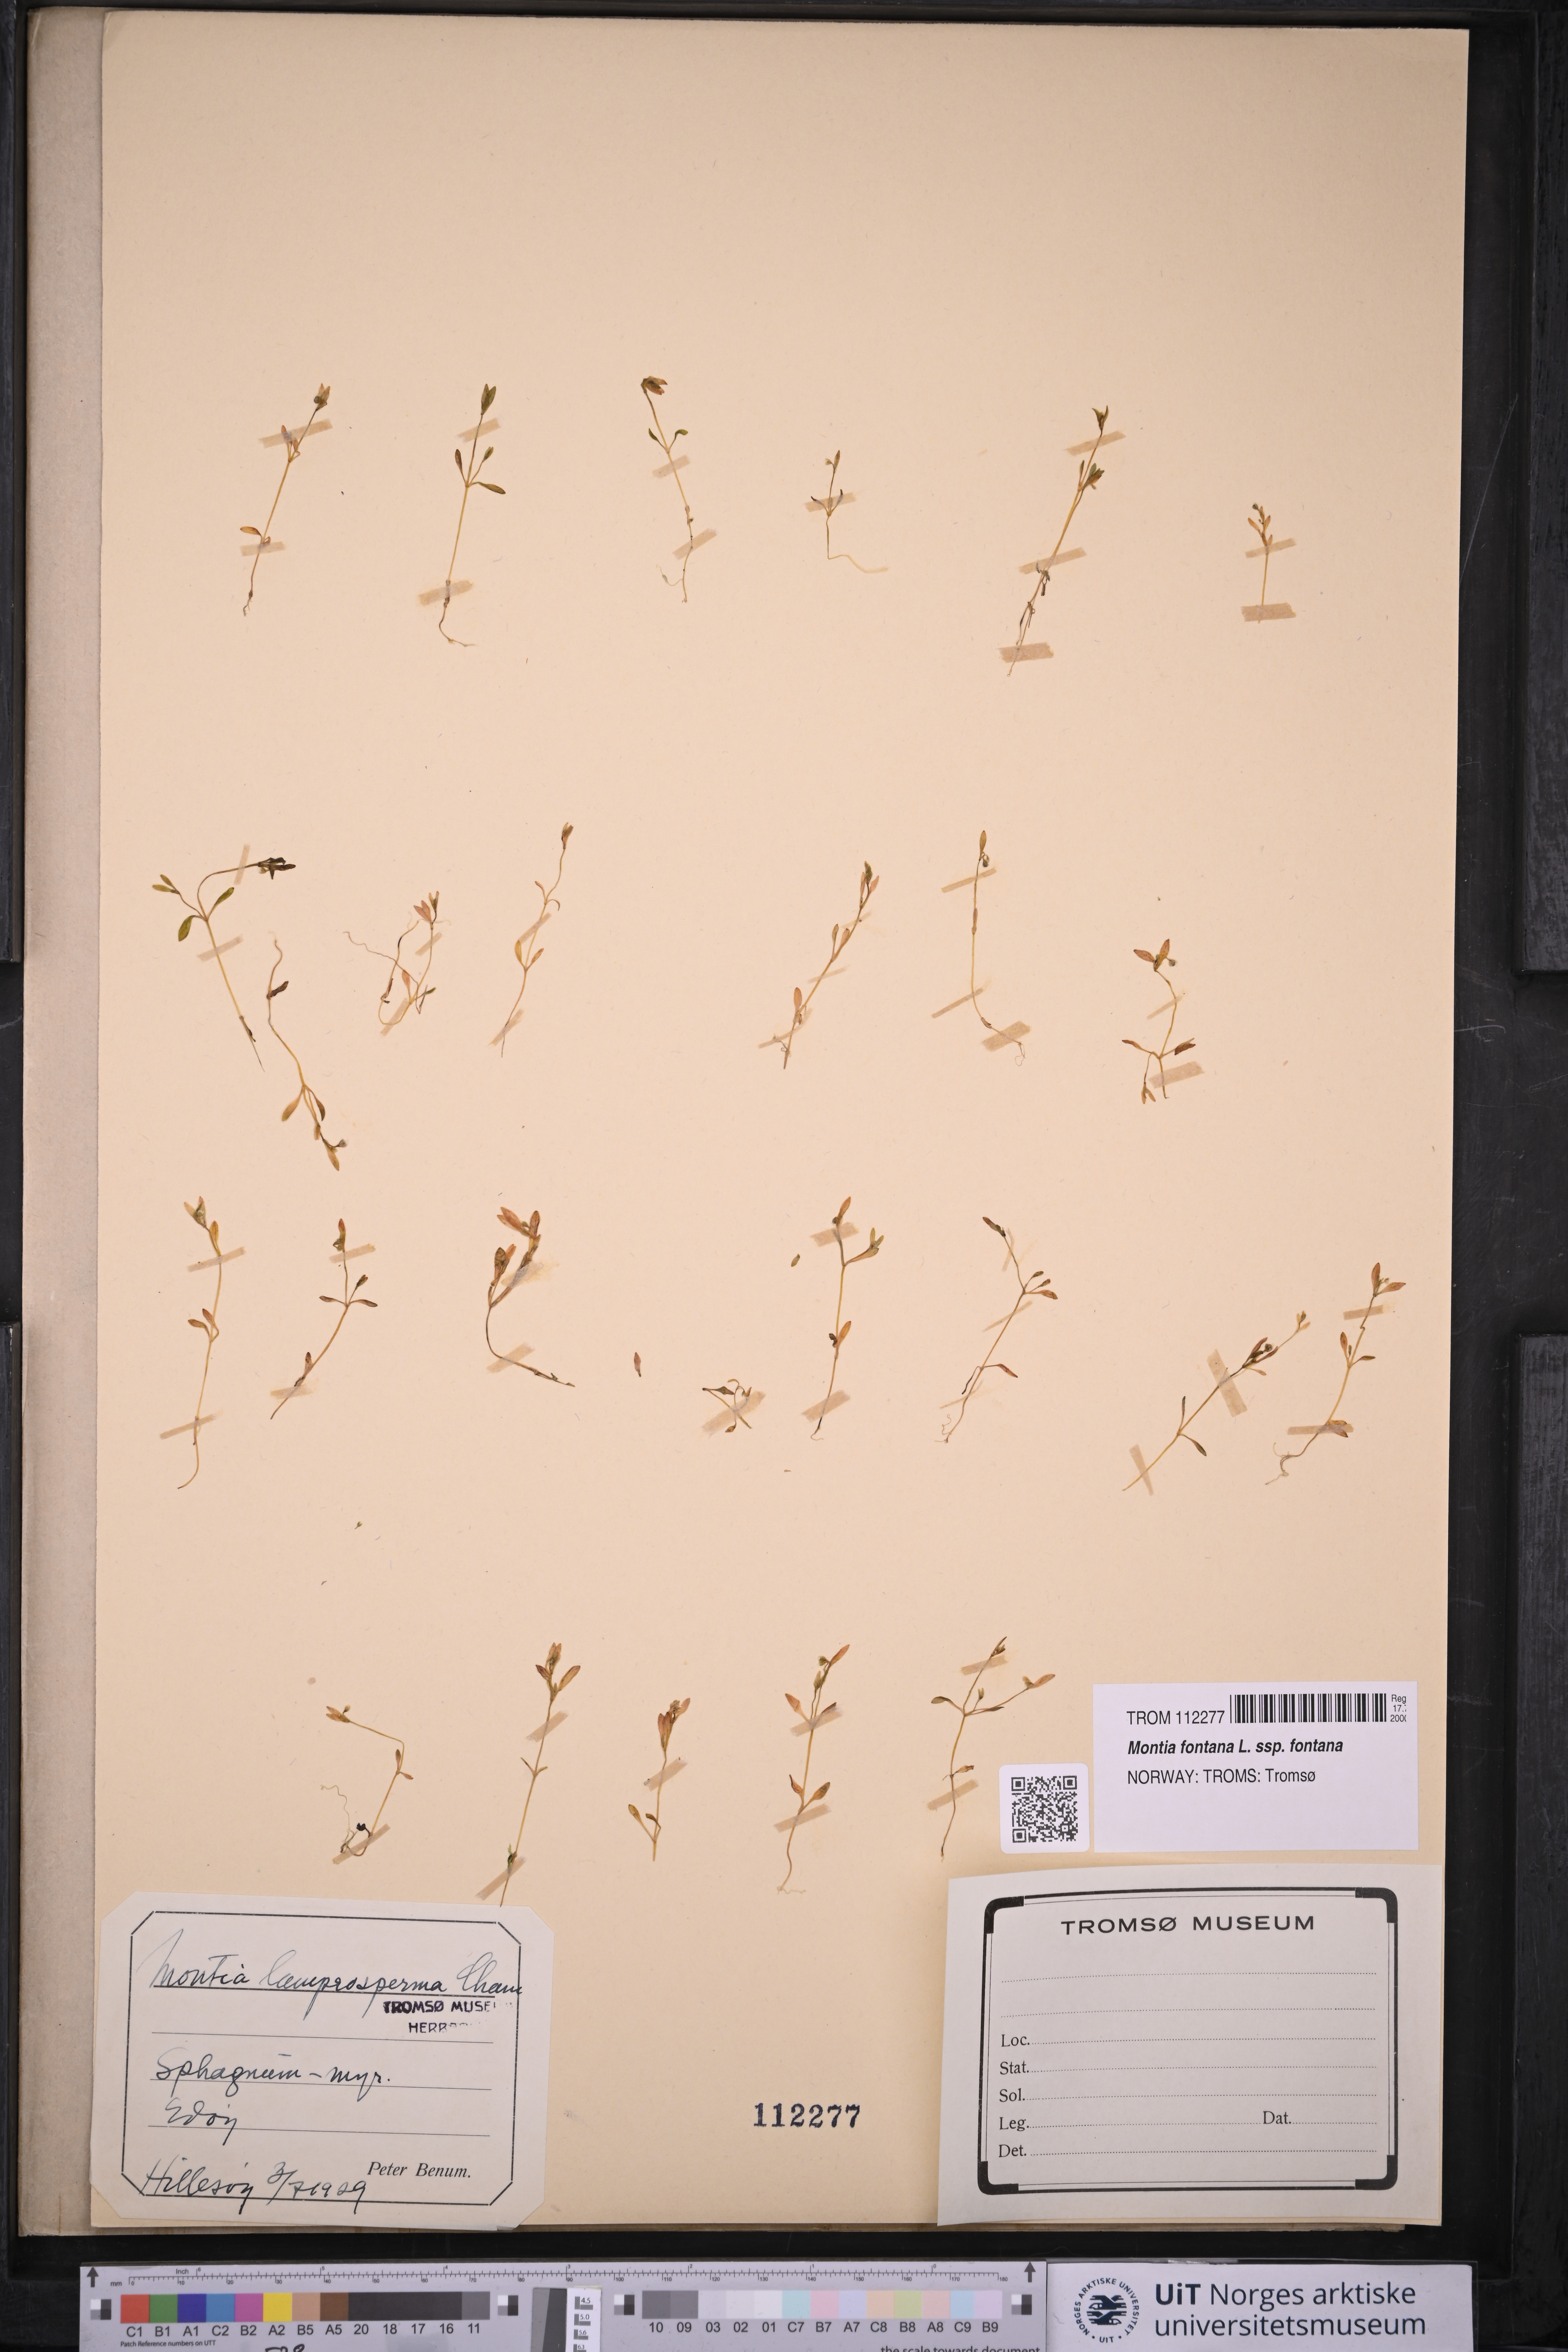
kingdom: Plantae
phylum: Tracheophyta
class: Magnoliopsida
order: Caryophyllales
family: Montiaceae
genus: Montia
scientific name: Montia fontana
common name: Blinks
